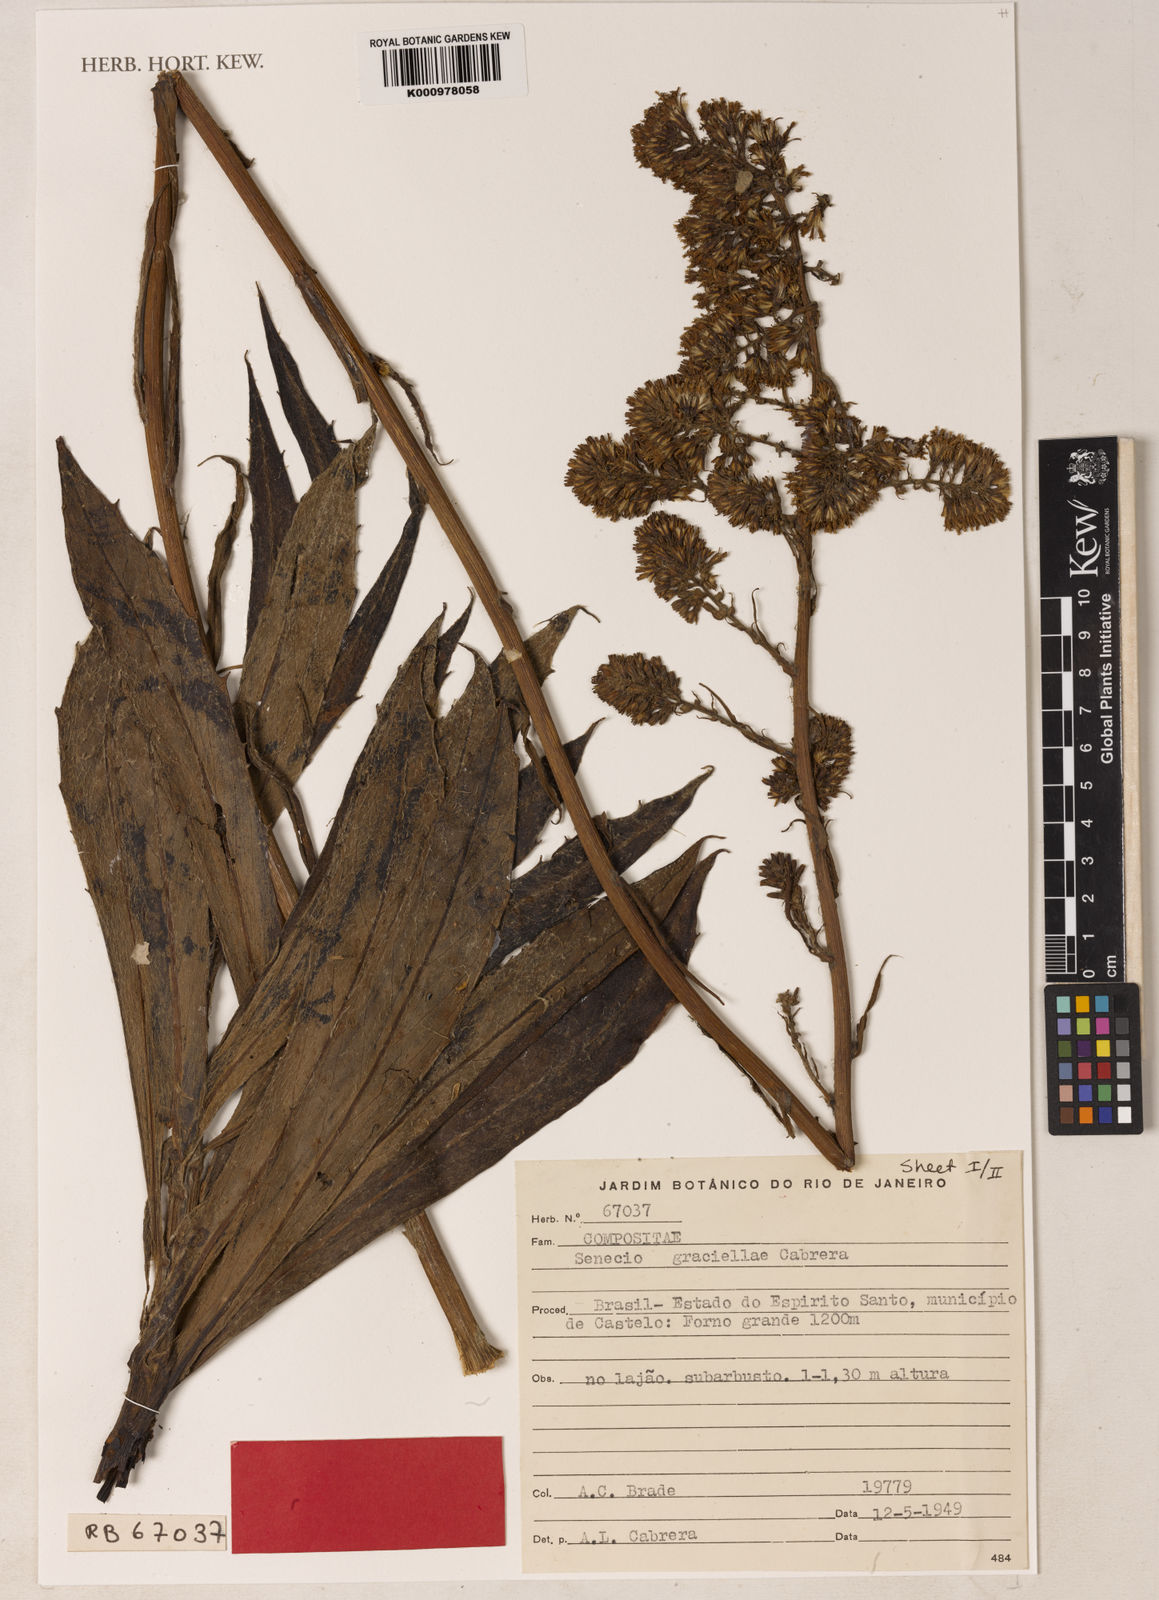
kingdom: Plantae
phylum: Tracheophyta
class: Magnoliopsida
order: Asterales
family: Asteraceae
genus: Senecio
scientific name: Senecio graciellae
